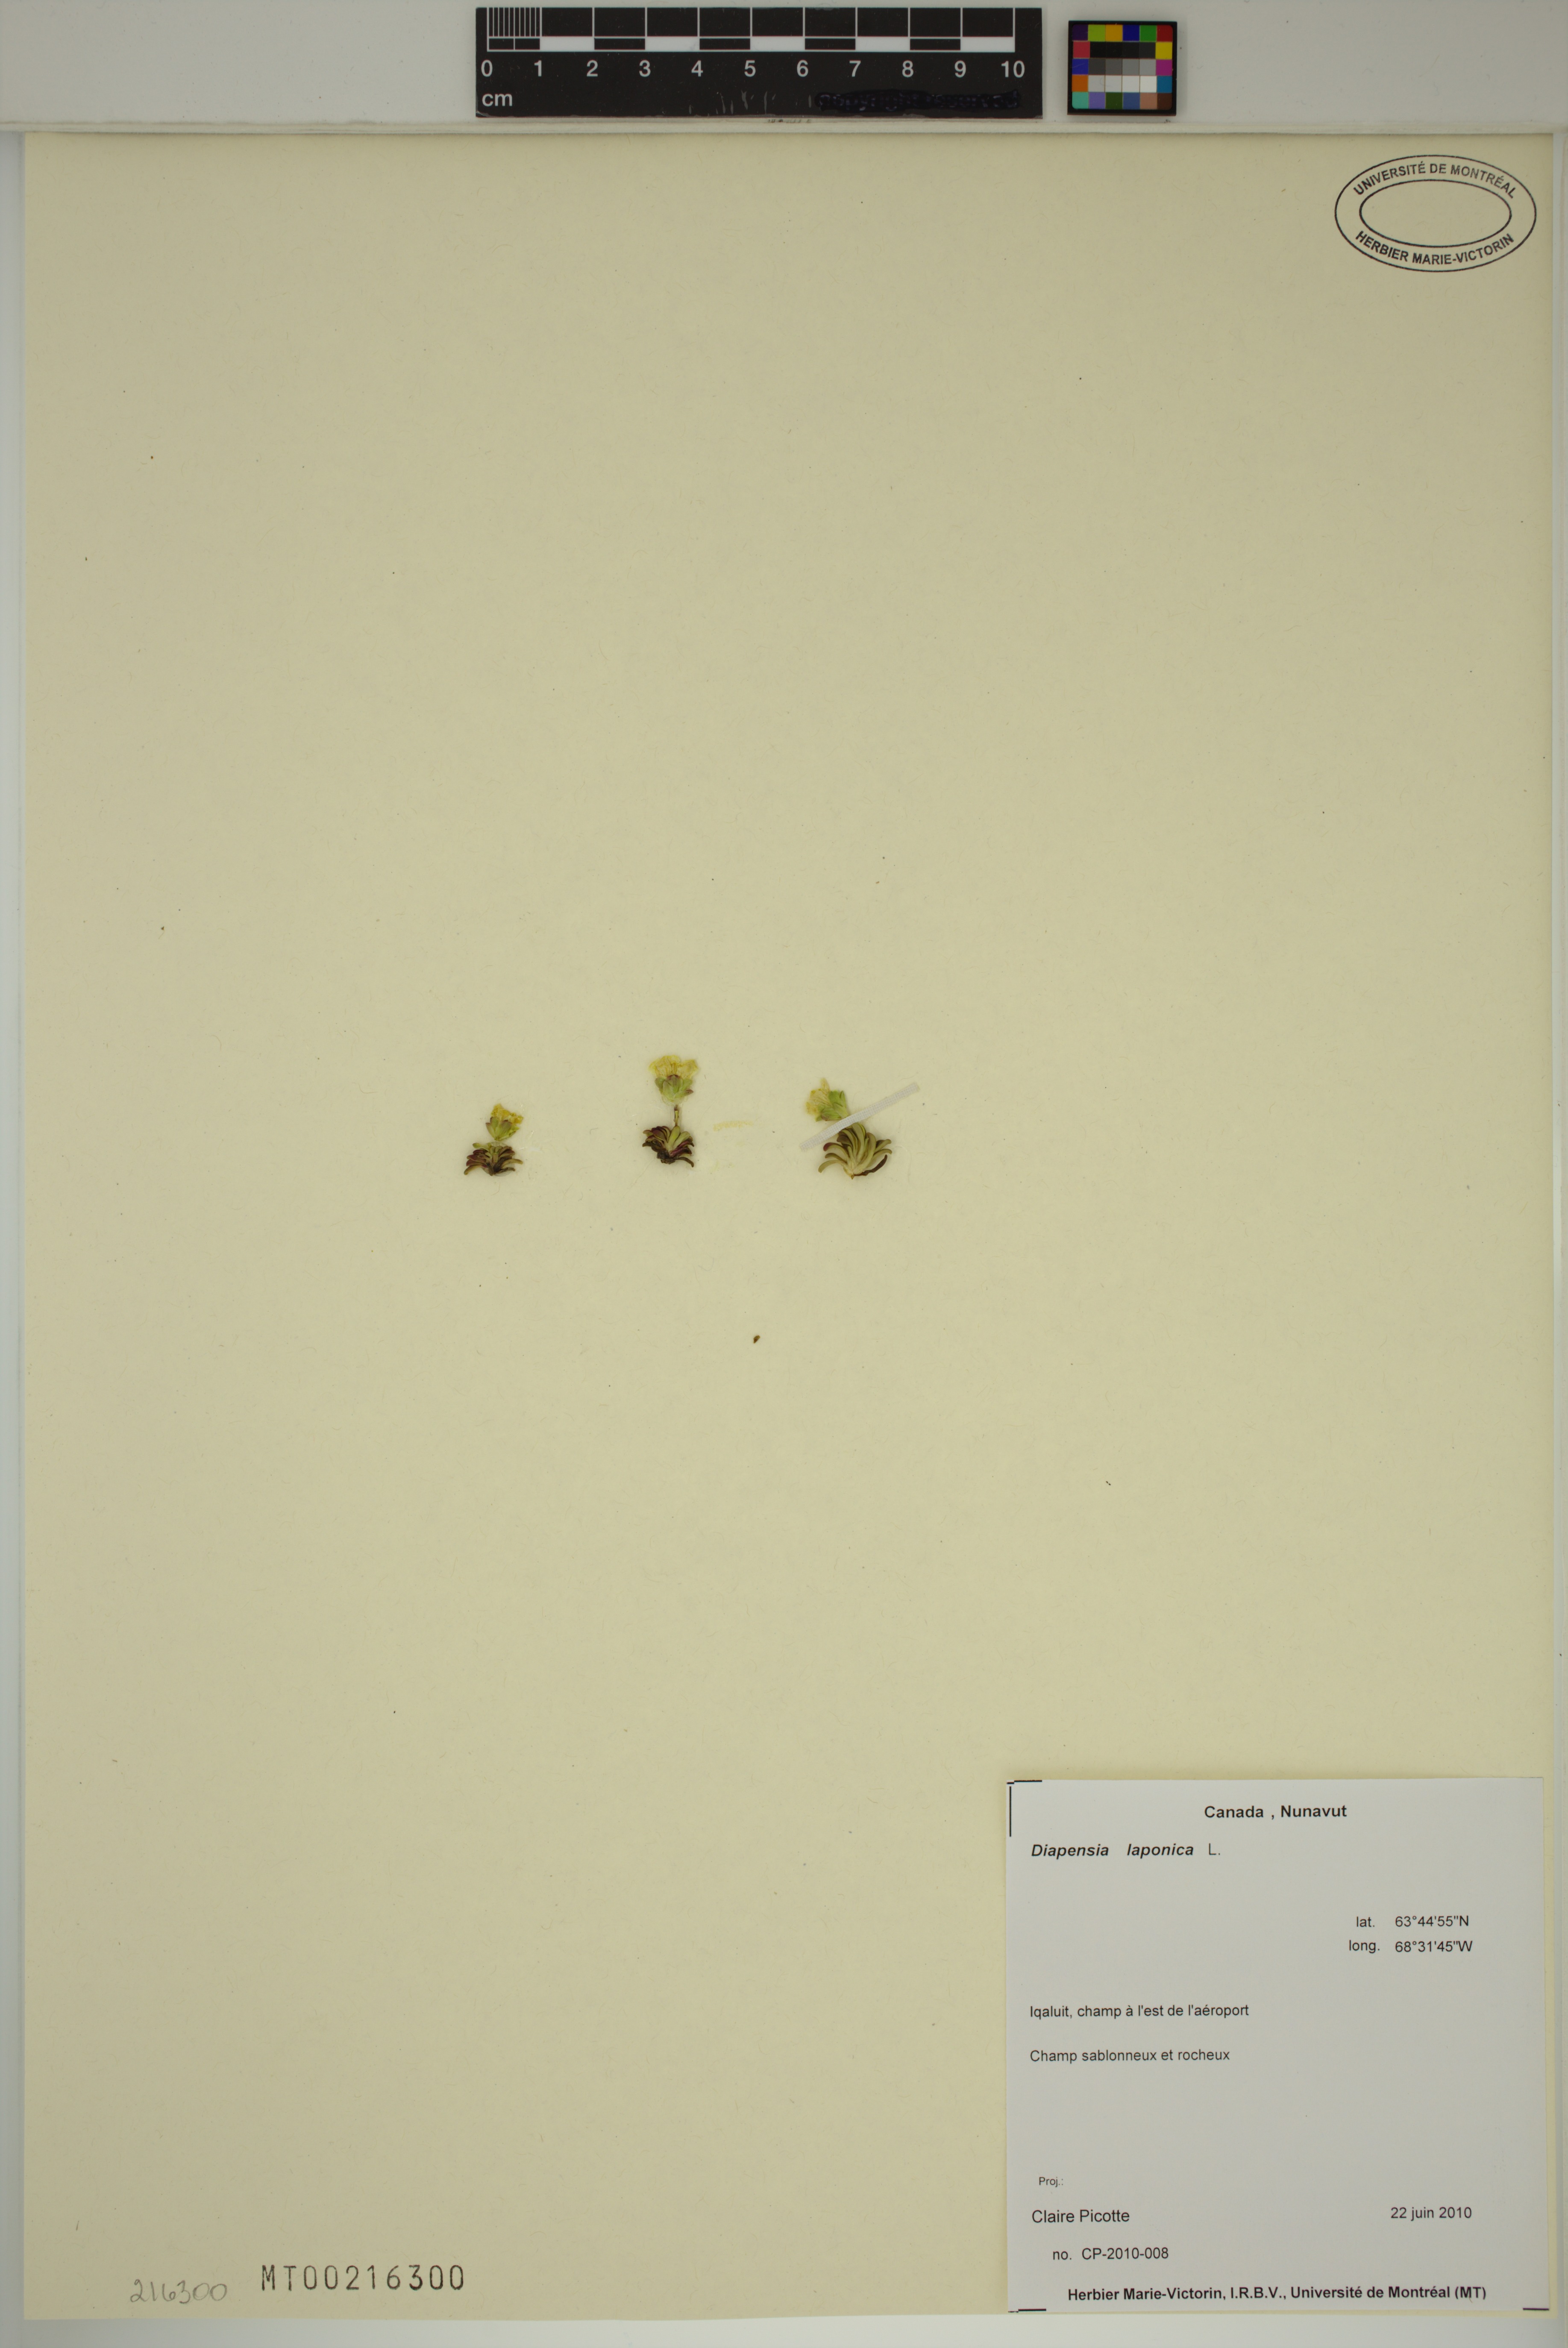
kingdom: Plantae
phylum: Tracheophyta
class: Magnoliopsida
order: Ericales
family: Diapensiaceae
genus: Diapensia
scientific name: Diapensia lapponica
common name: Diapensia
